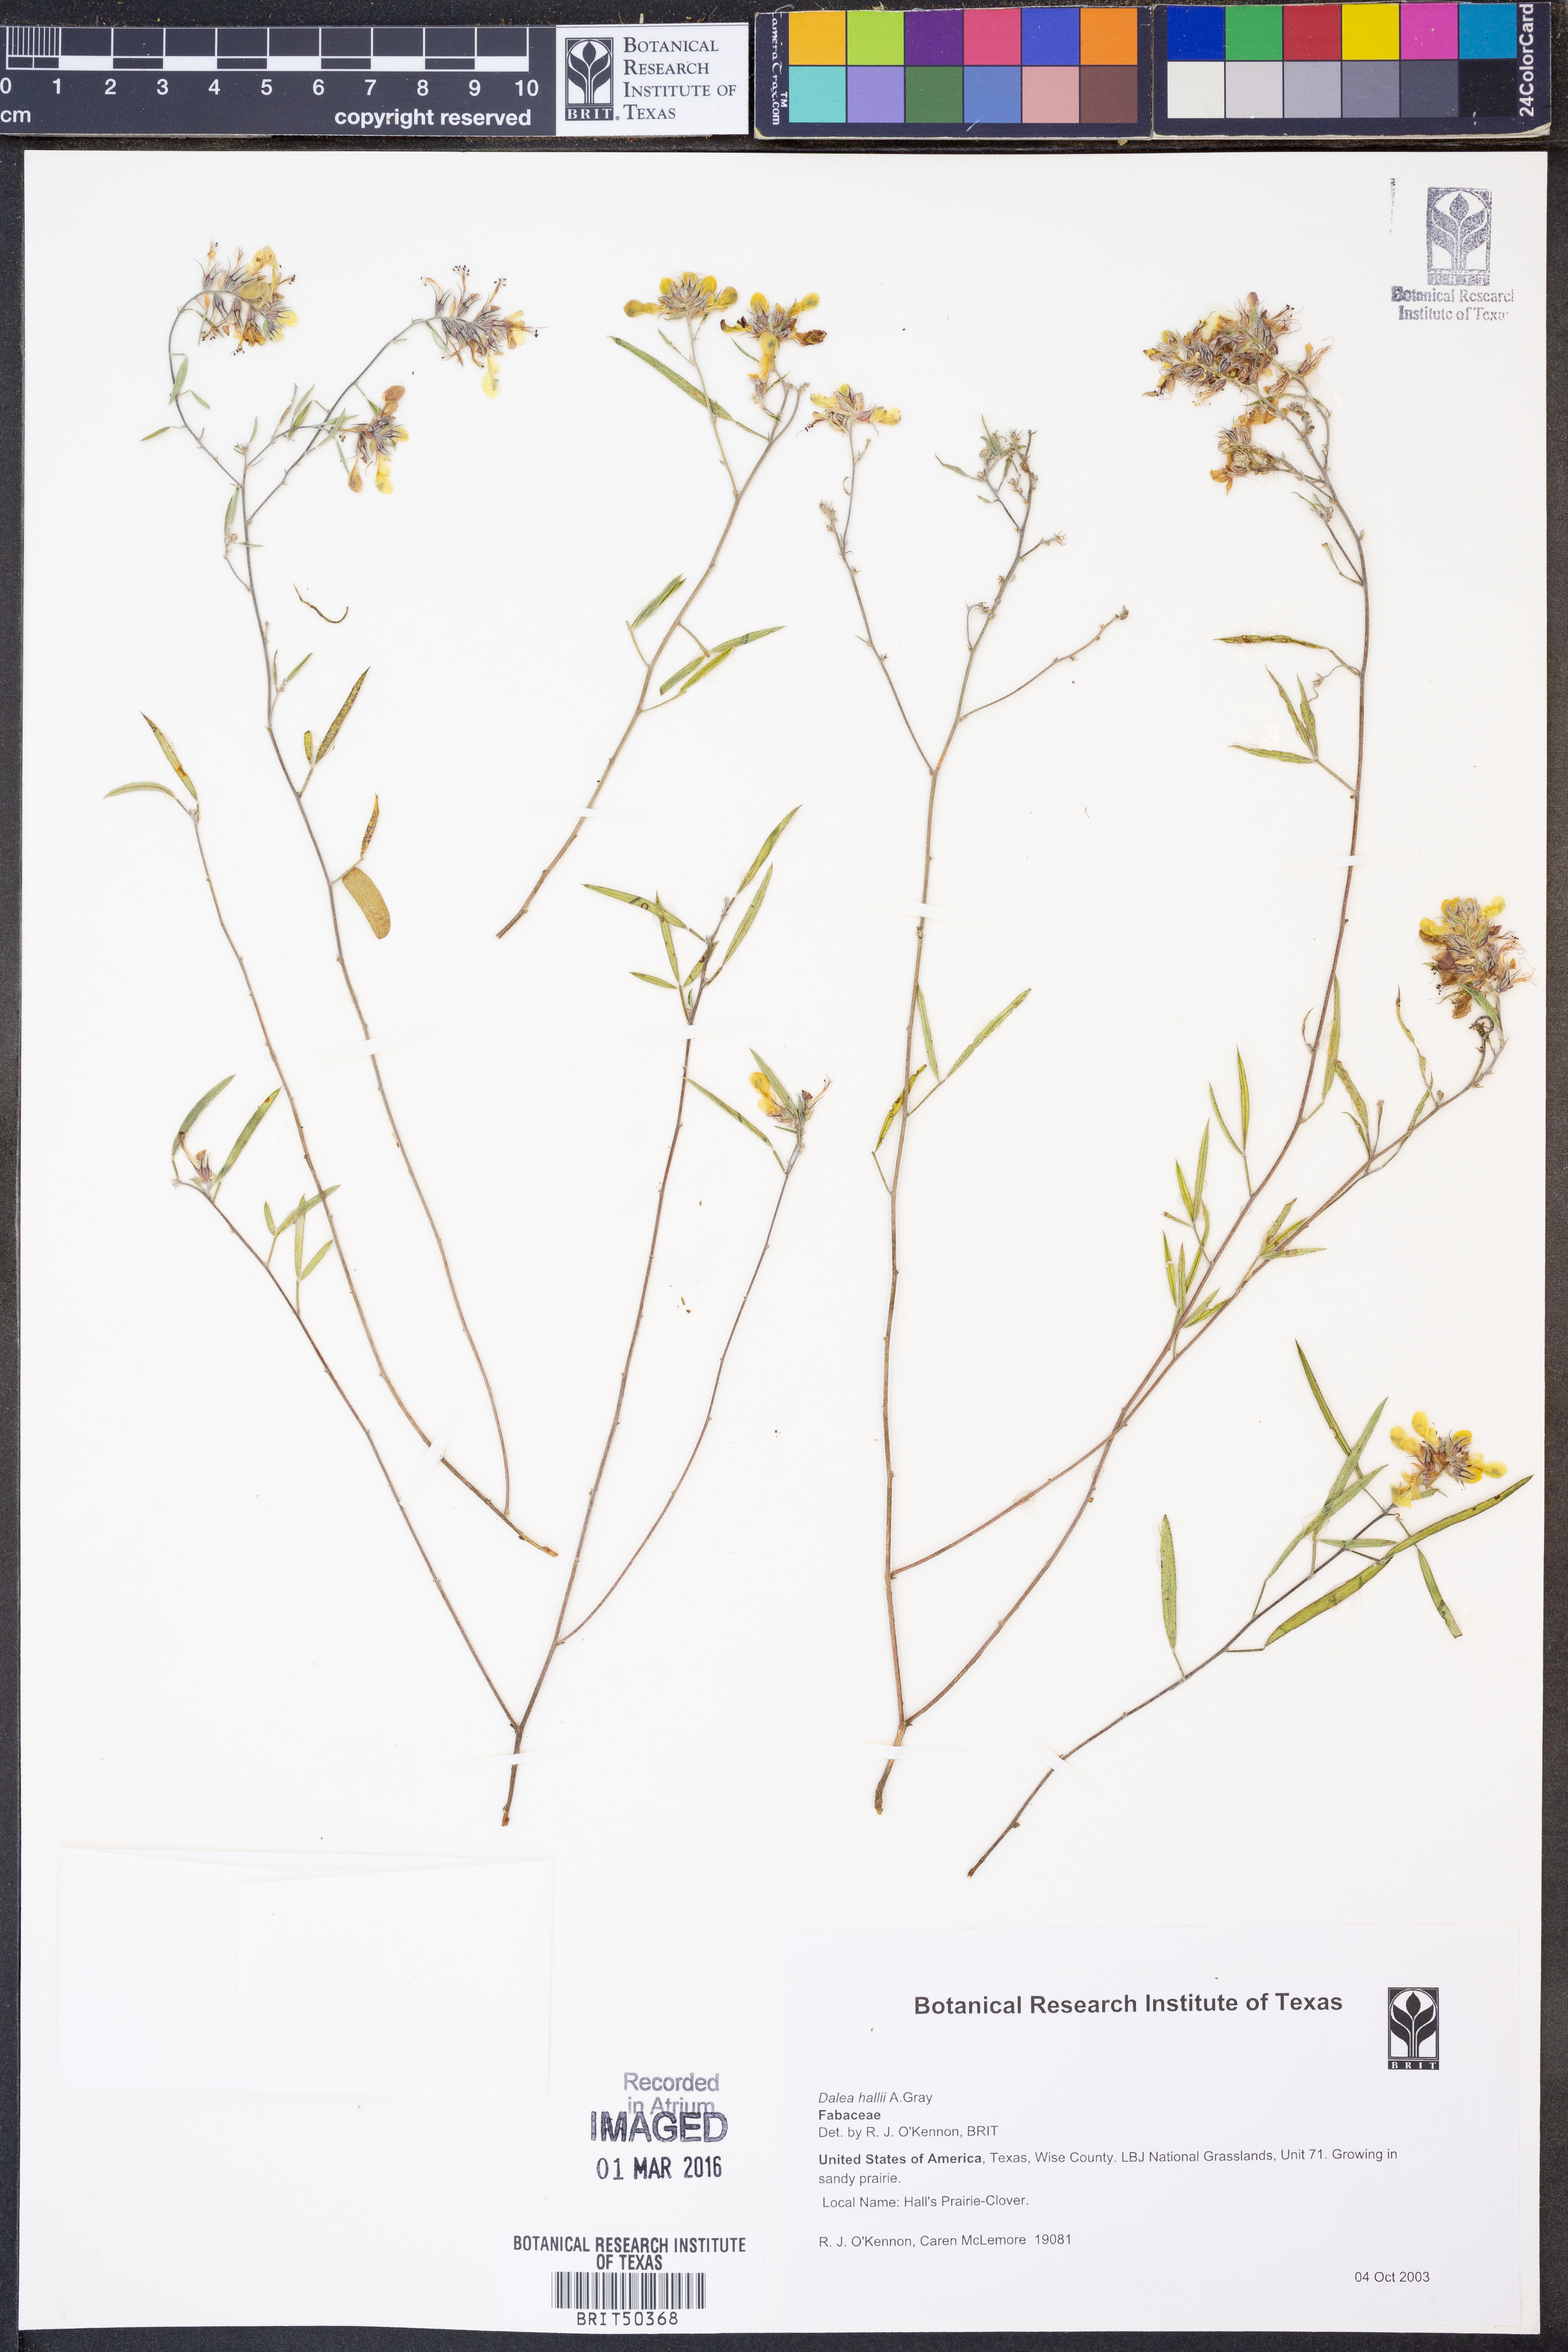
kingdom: Plantae
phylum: Tracheophyta
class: Magnoliopsida
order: Fabales
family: Fabaceae
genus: Dalea
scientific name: Dalea hallii
